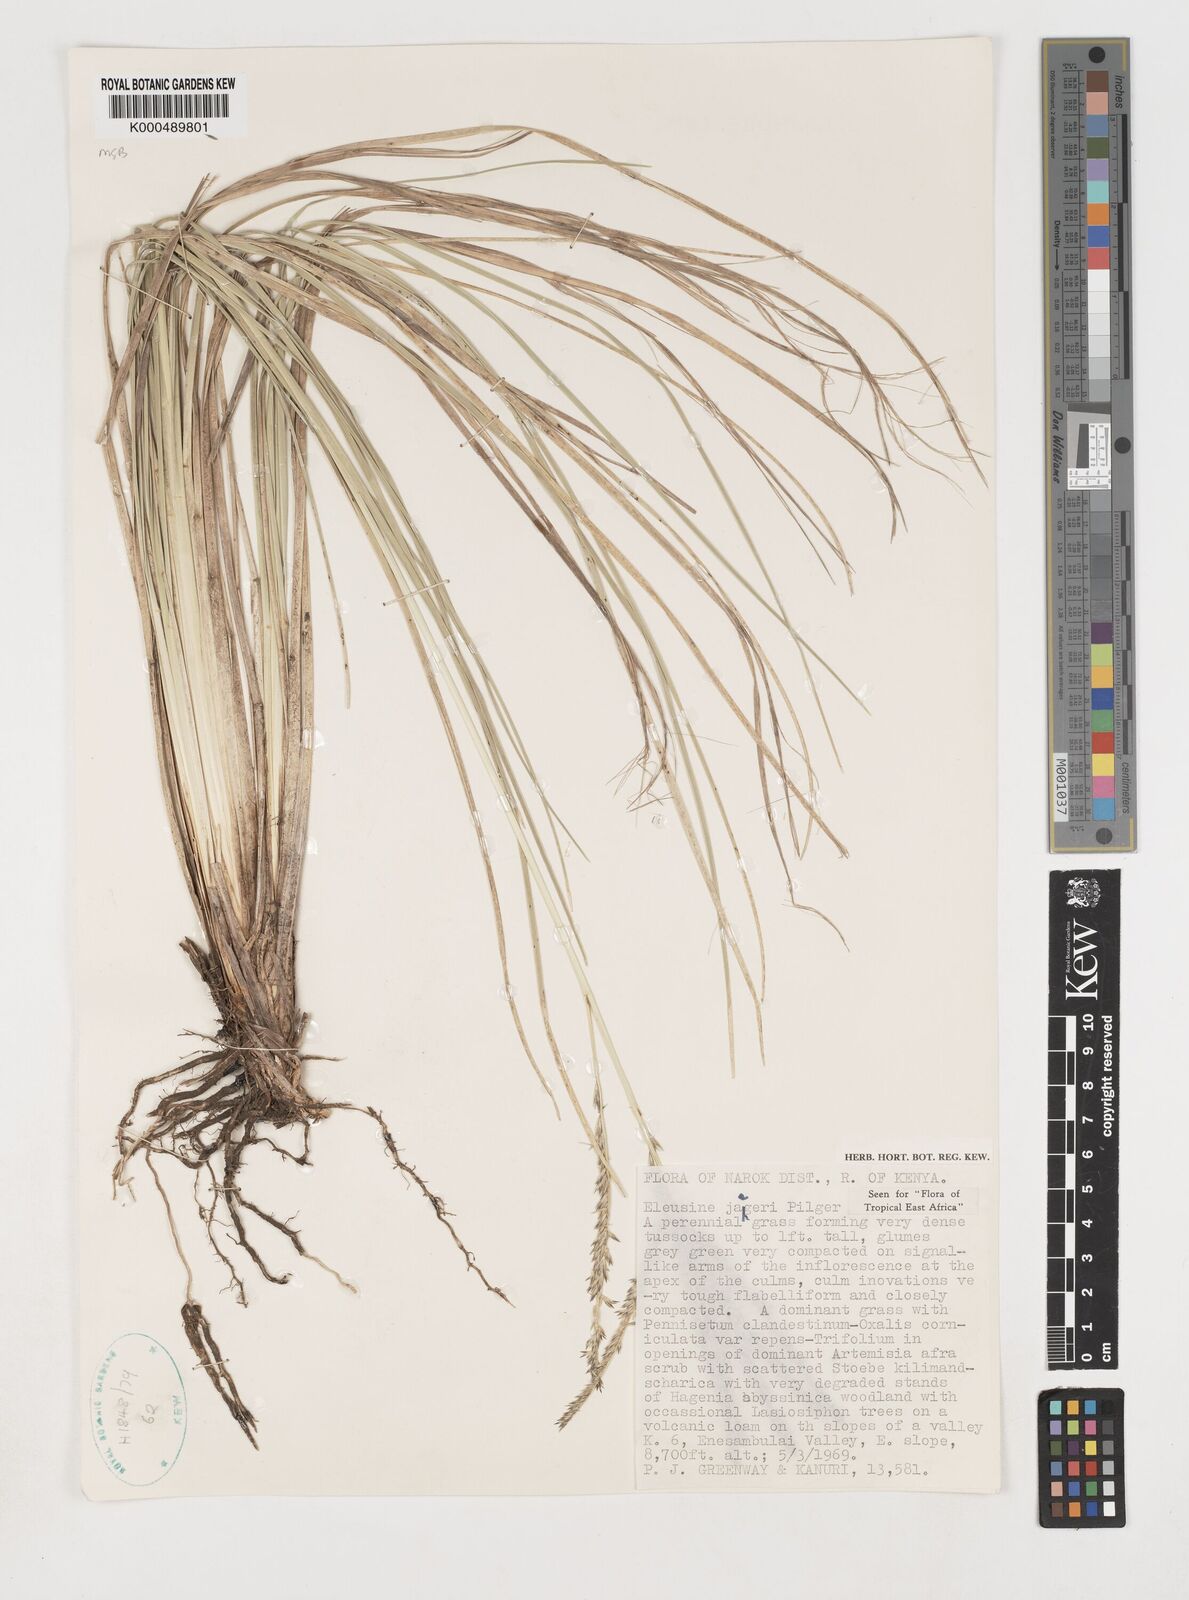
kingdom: Plantae
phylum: Tracheophyta
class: Liliopsida
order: Poales
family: Poaceae
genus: Eleusine
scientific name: Eleusine jaegeri
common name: Manyatta grass
